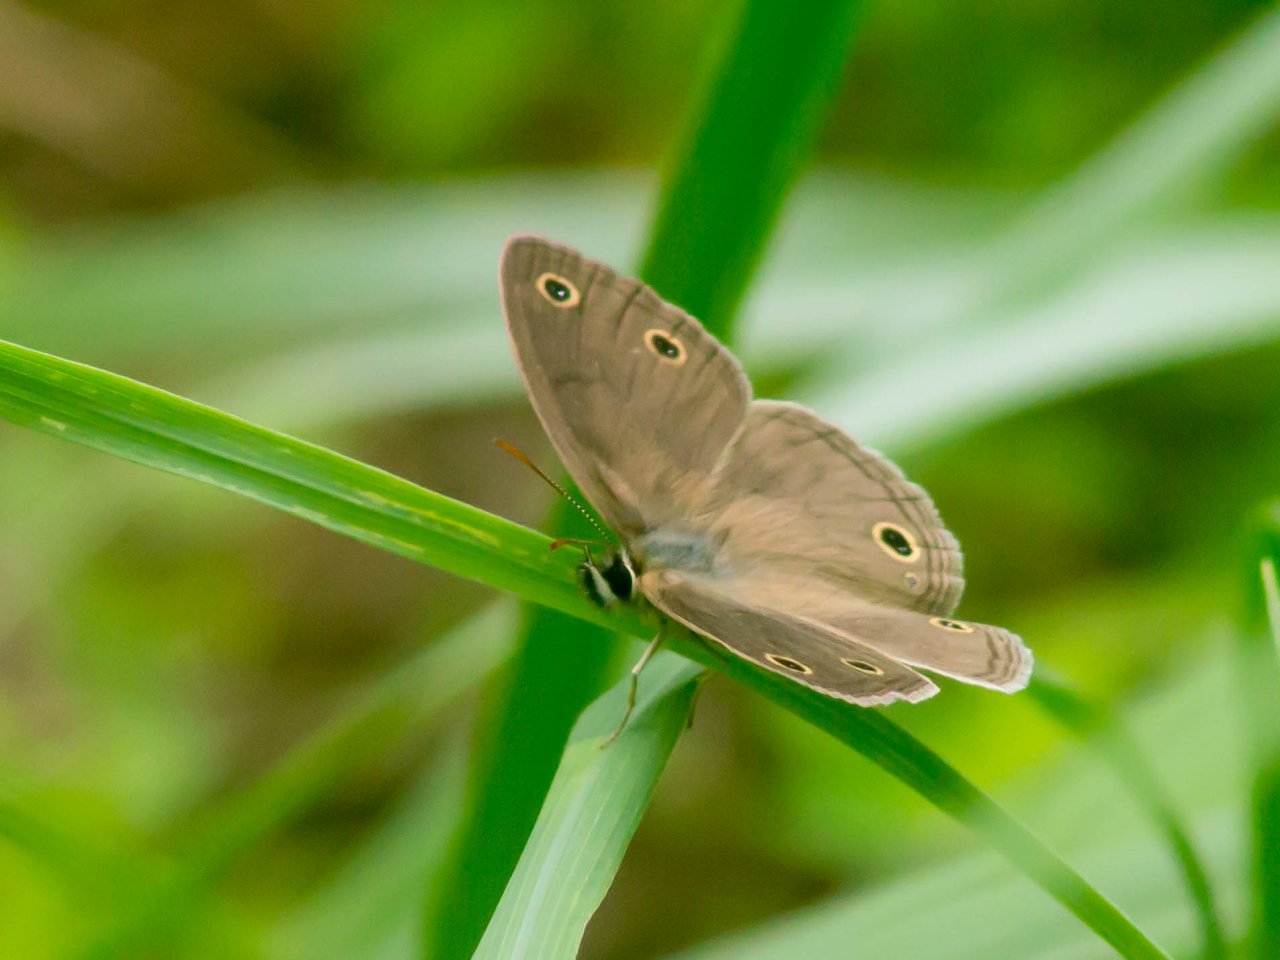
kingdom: Animalia
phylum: Arthropoda
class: Insecta
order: Lepidoptera
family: Nymphalidae
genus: Euptychia
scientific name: Euptychia cymela
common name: Little Wood Satyr
